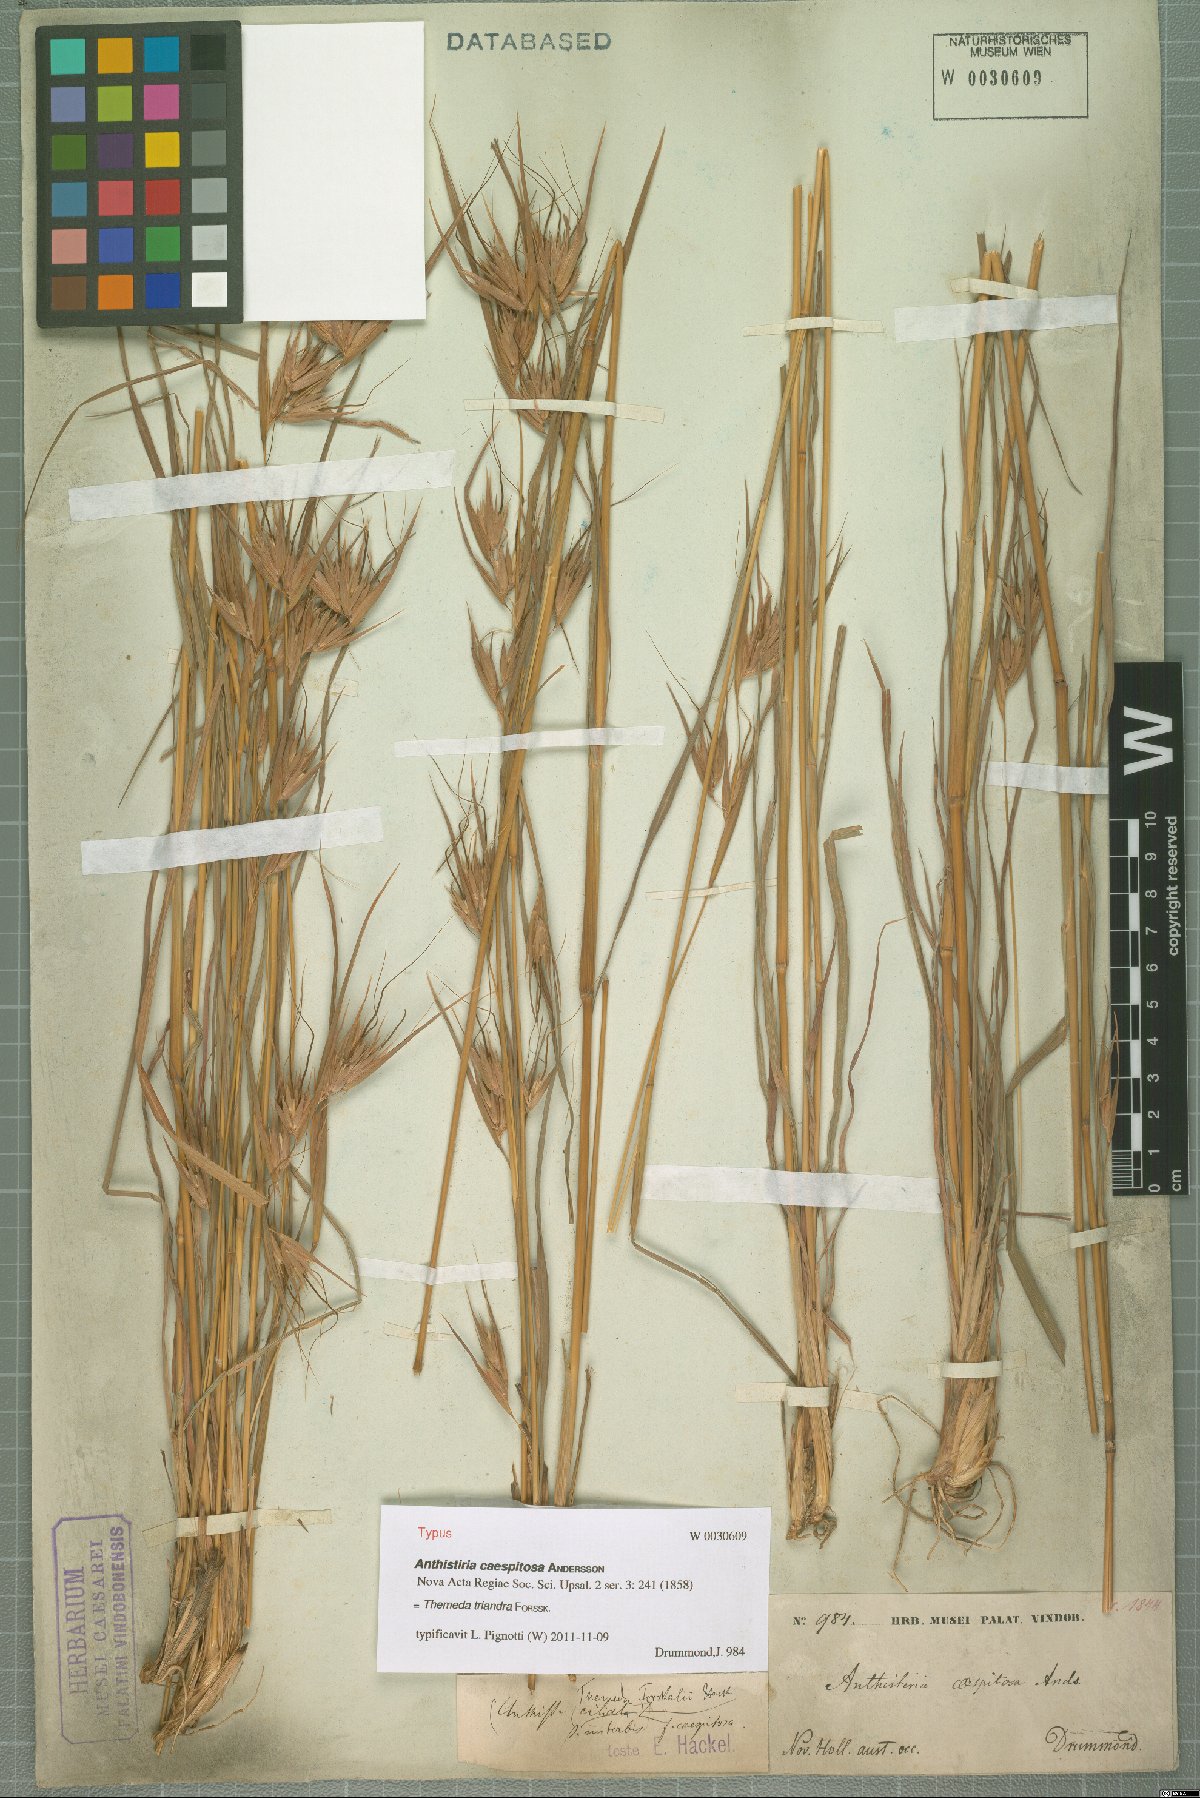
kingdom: Plantae
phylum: Tracheophyta
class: Liliopsida
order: Poales
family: Poaceae
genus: Themeda
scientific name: Themeda triandra
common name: Kangaroo grass
